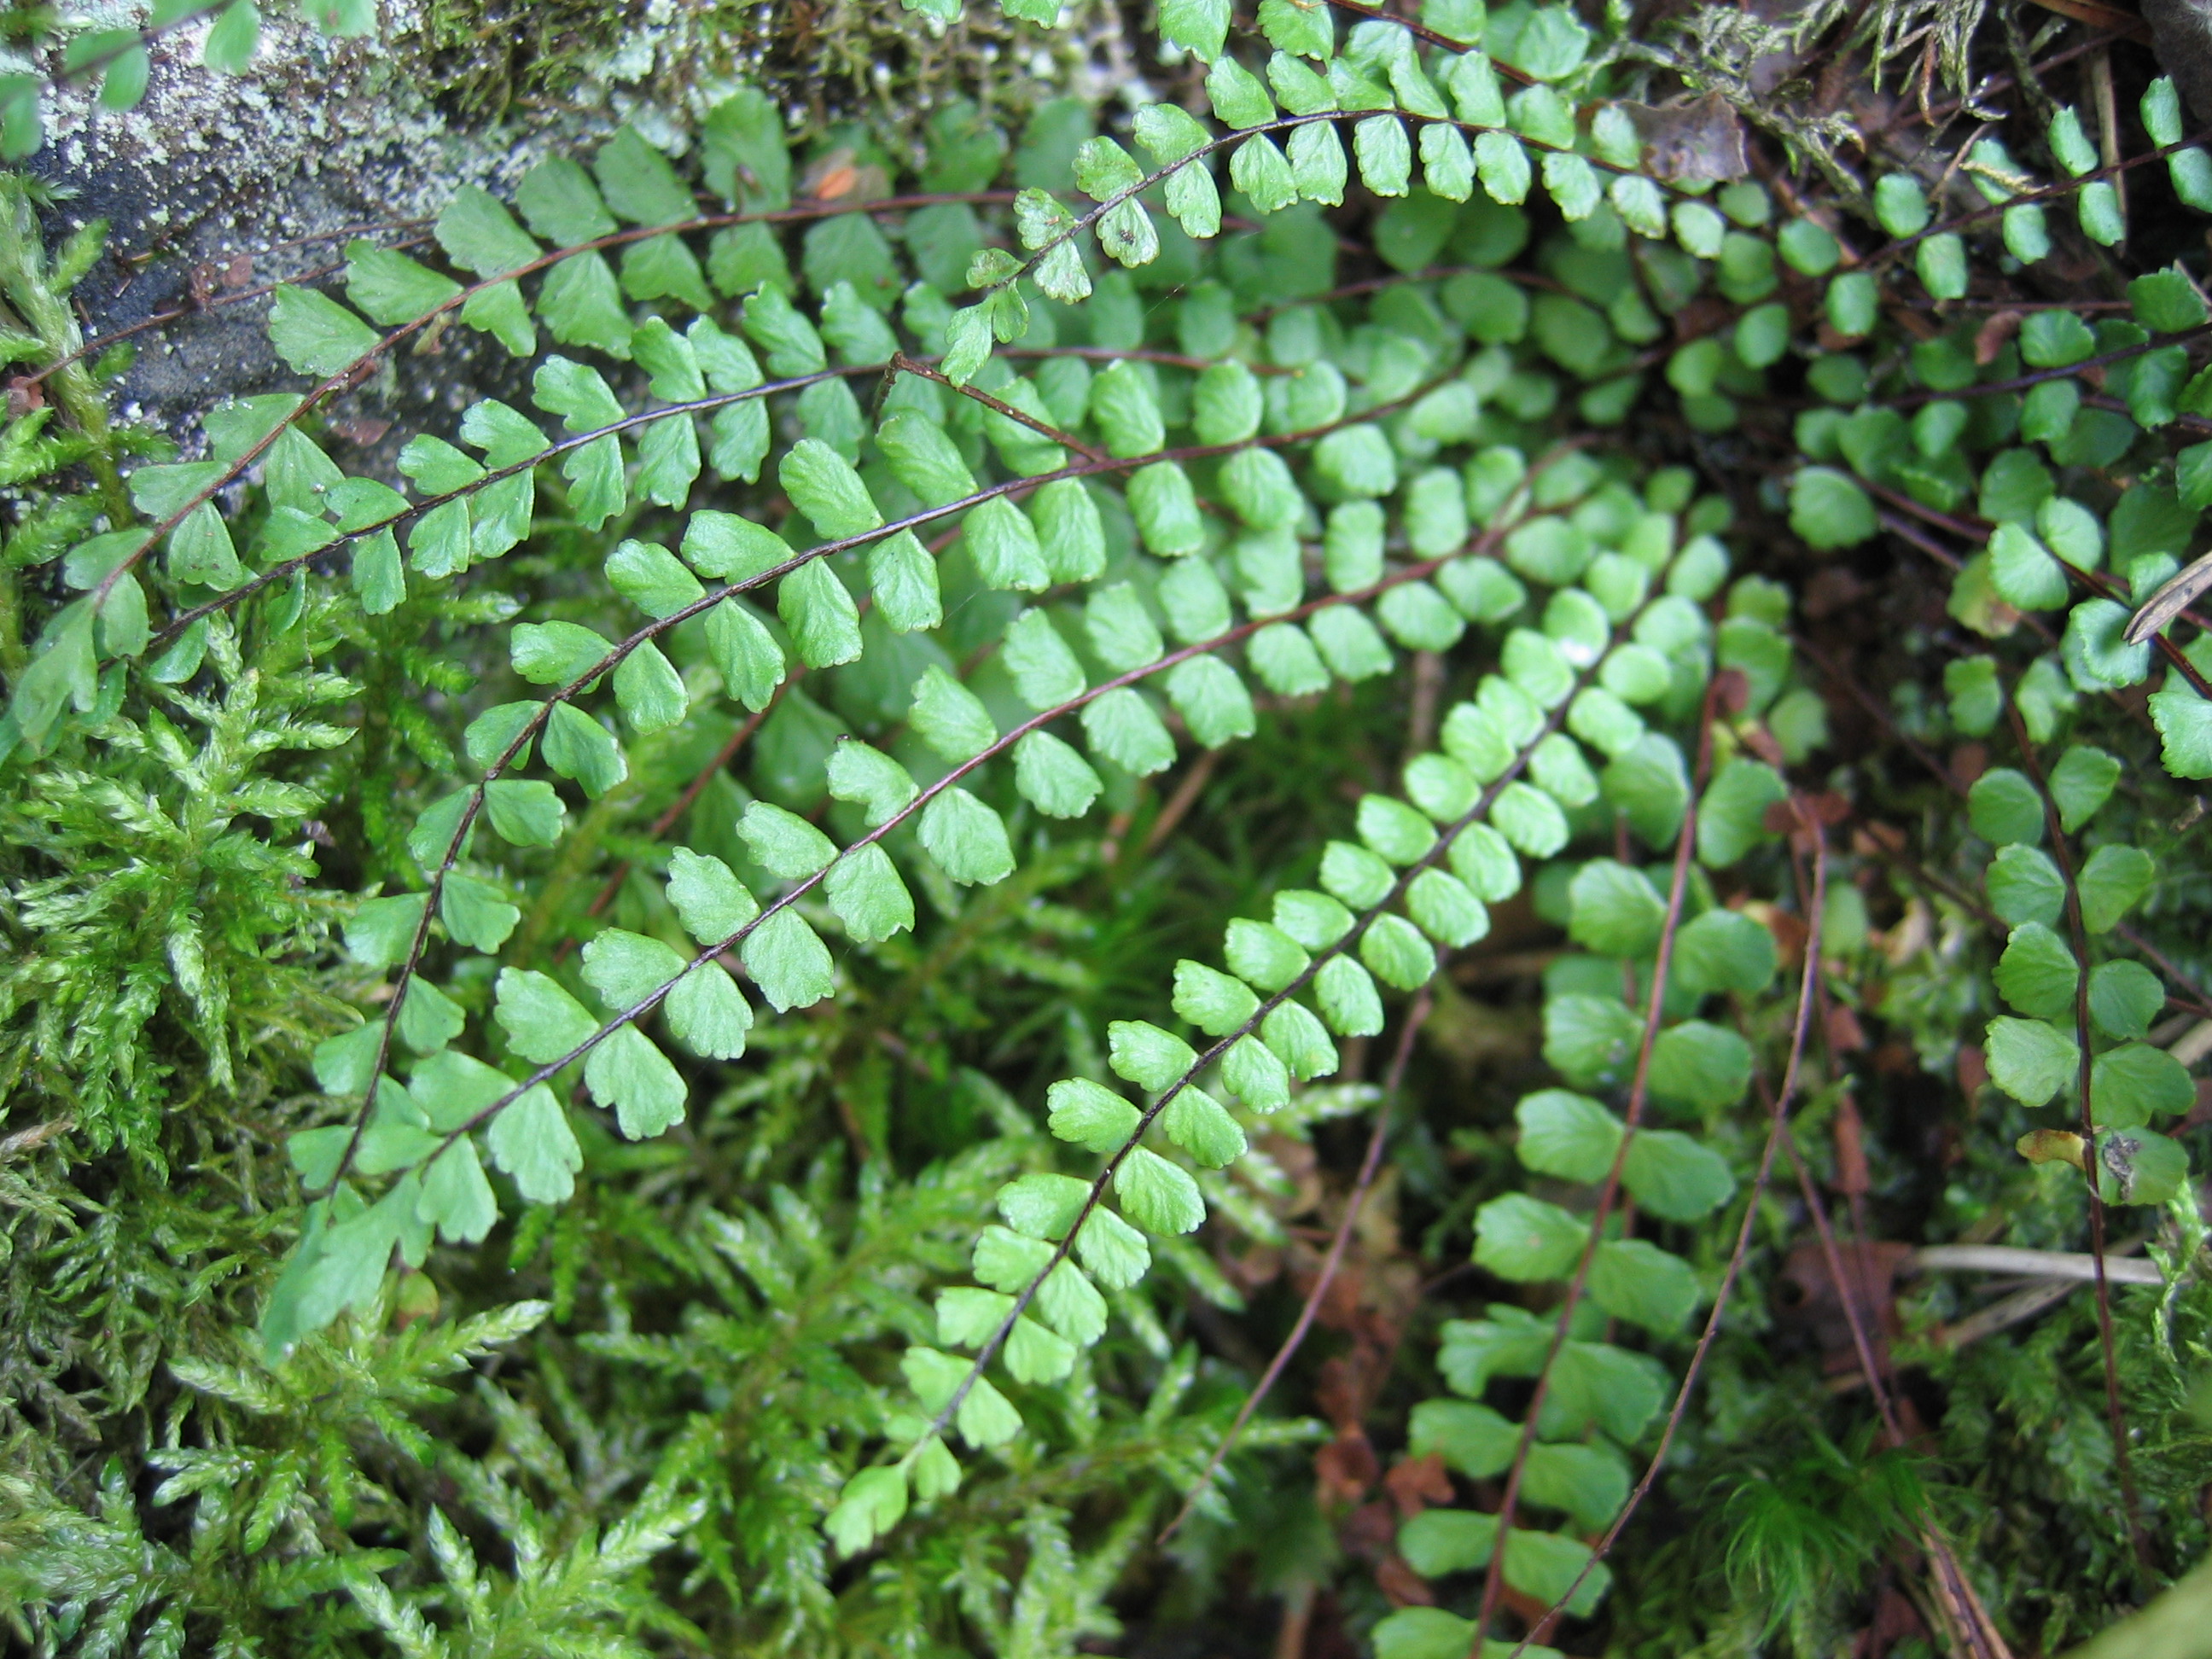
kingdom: Plantae
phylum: Tracheophyta
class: Polypodiopsida
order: Polypodiales
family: Aspleniaceae
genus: Asplenium
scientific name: Asplenium trichomanes
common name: Maidenhair spleenwort
